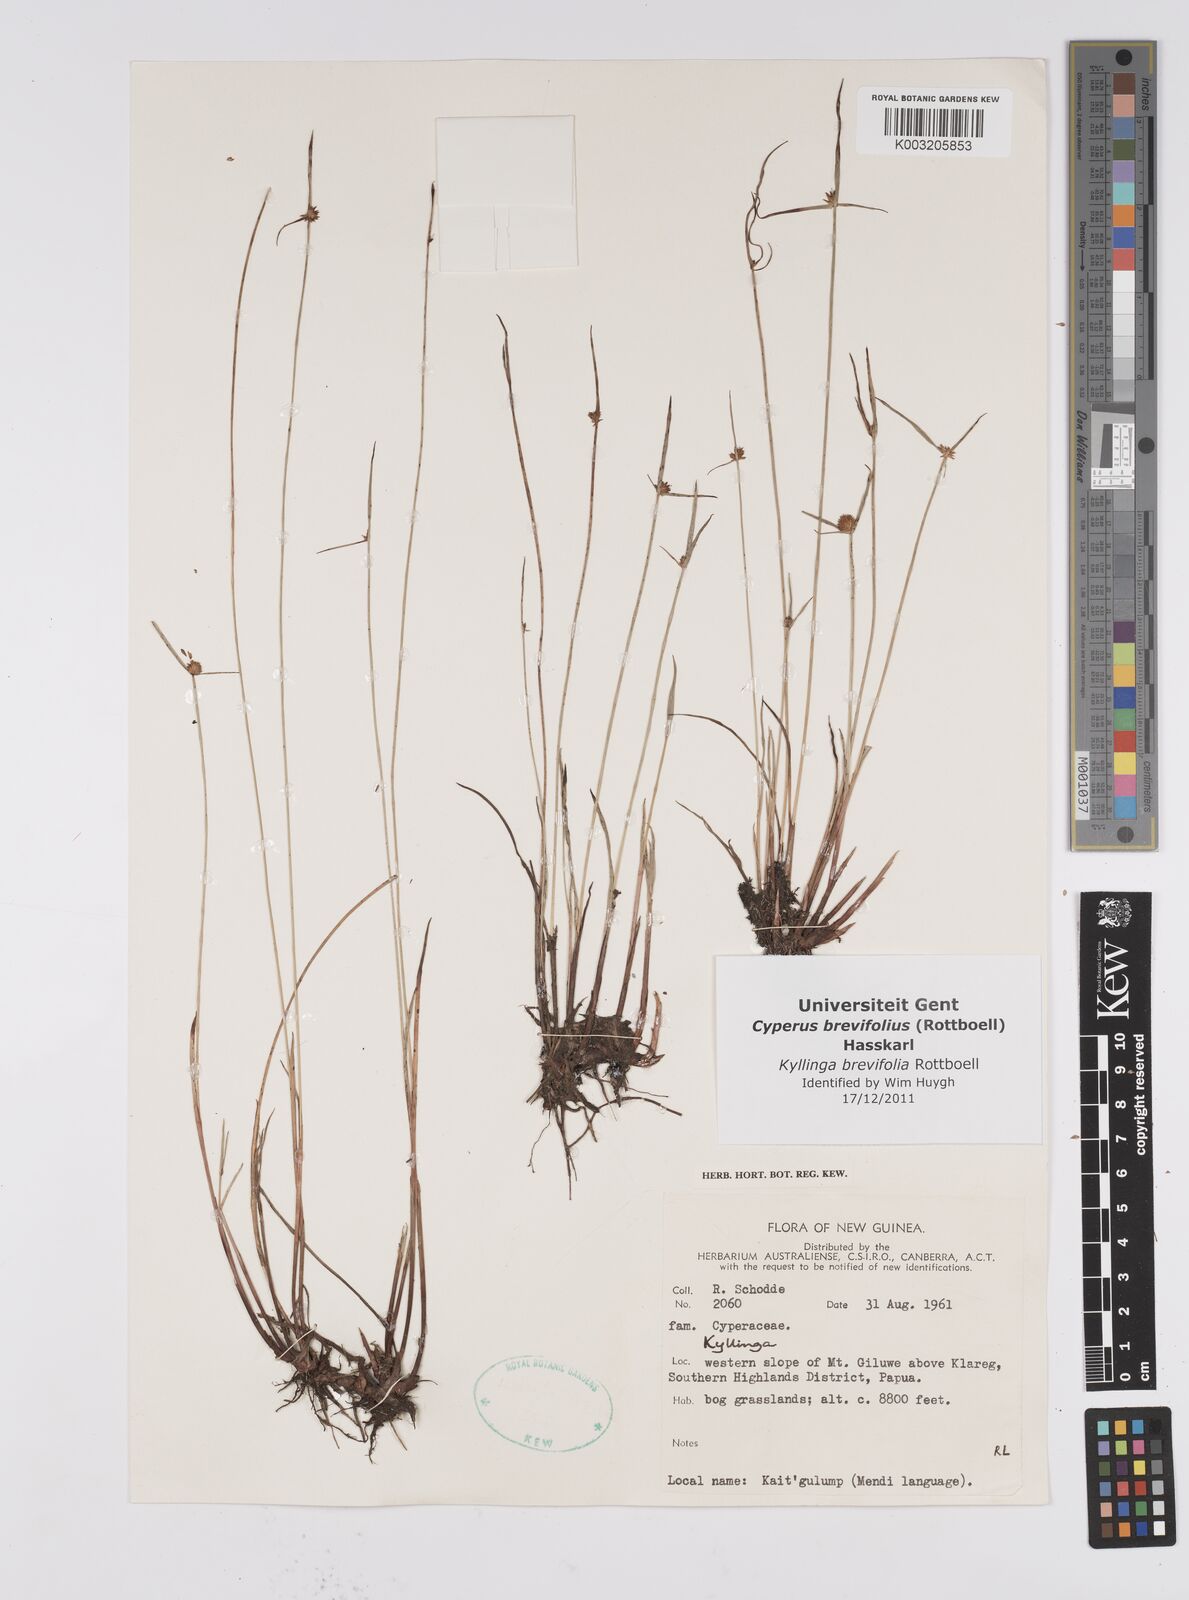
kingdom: Plantae
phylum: Tracheophyta
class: Liliopsida
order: Poales
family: Cyperaceae
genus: Cyperus
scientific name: Cyperus brevifolius
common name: Globe kyllinga
